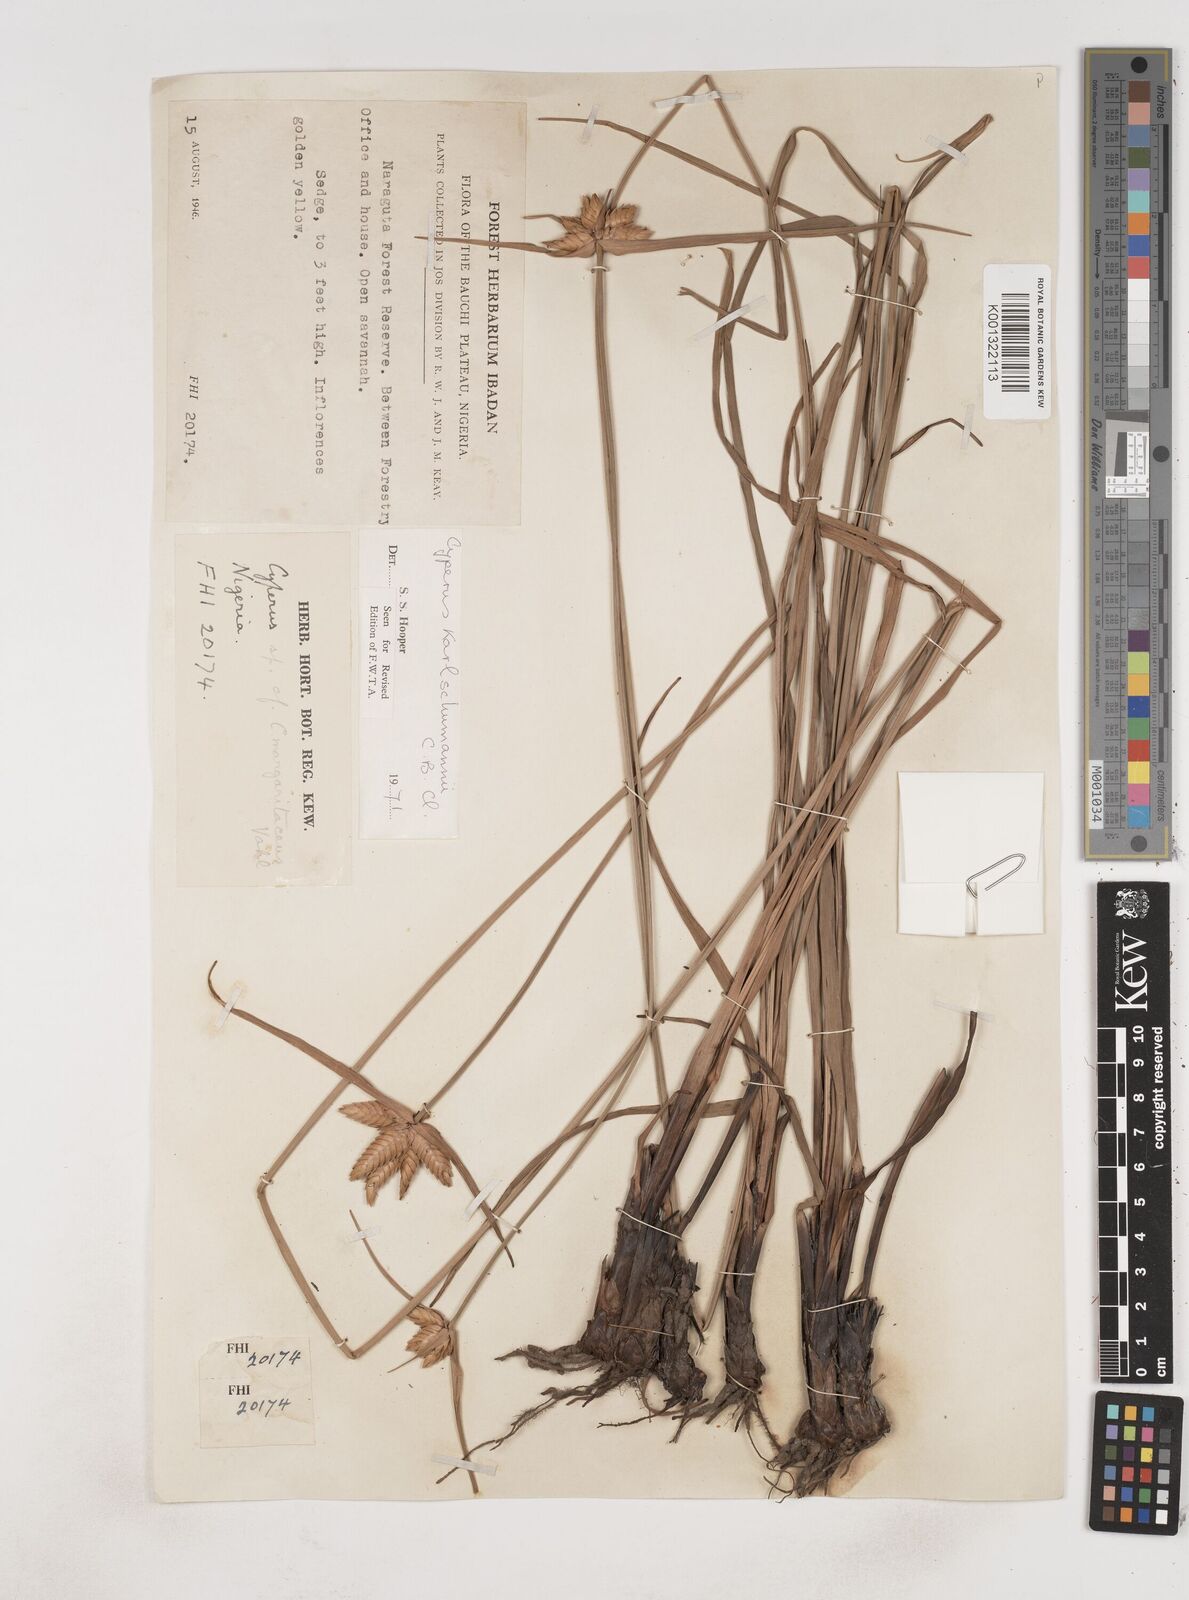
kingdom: Plantae
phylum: Tracheophyta
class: Liliopsida
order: Poales
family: Cyperaceae
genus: Cyperus
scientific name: Cyperus karlschumannii
